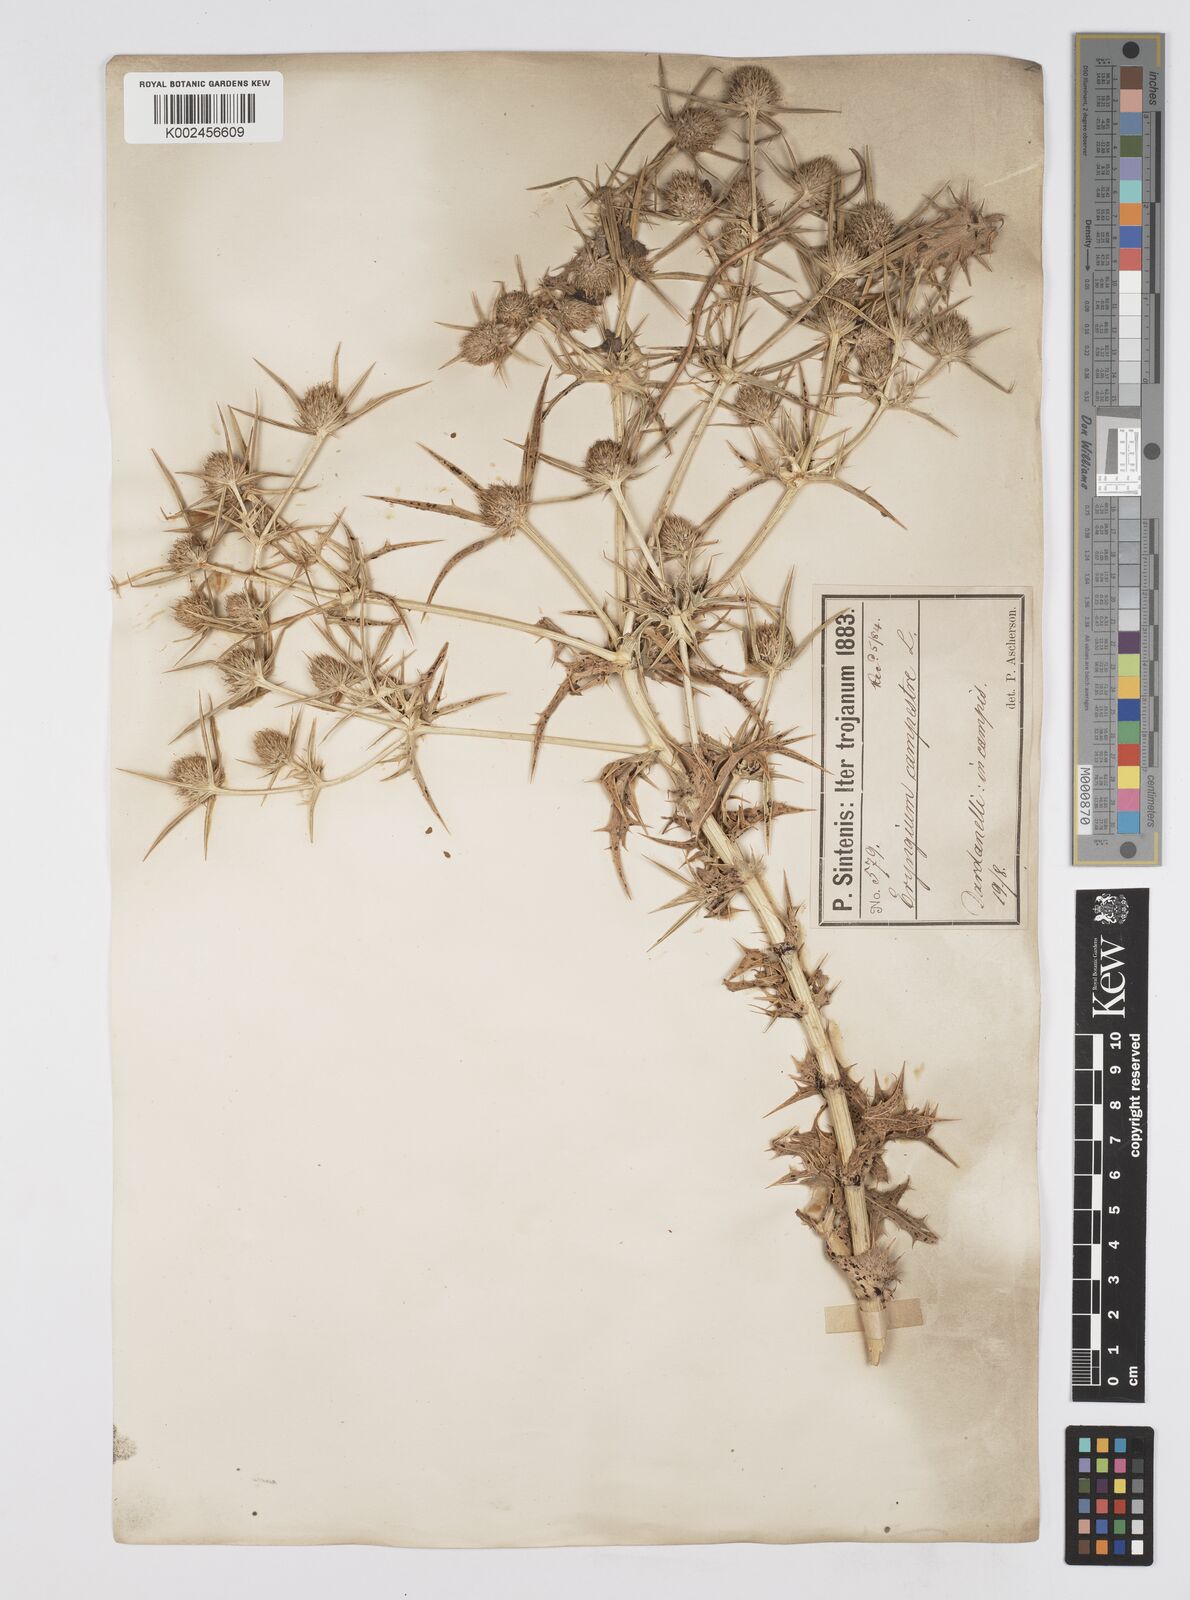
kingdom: Plantae
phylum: Tracheophyta
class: Magnoliopsida
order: Apiales
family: Apiaceae
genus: Eryngium
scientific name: Eryngium campestre
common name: Field eryngo
